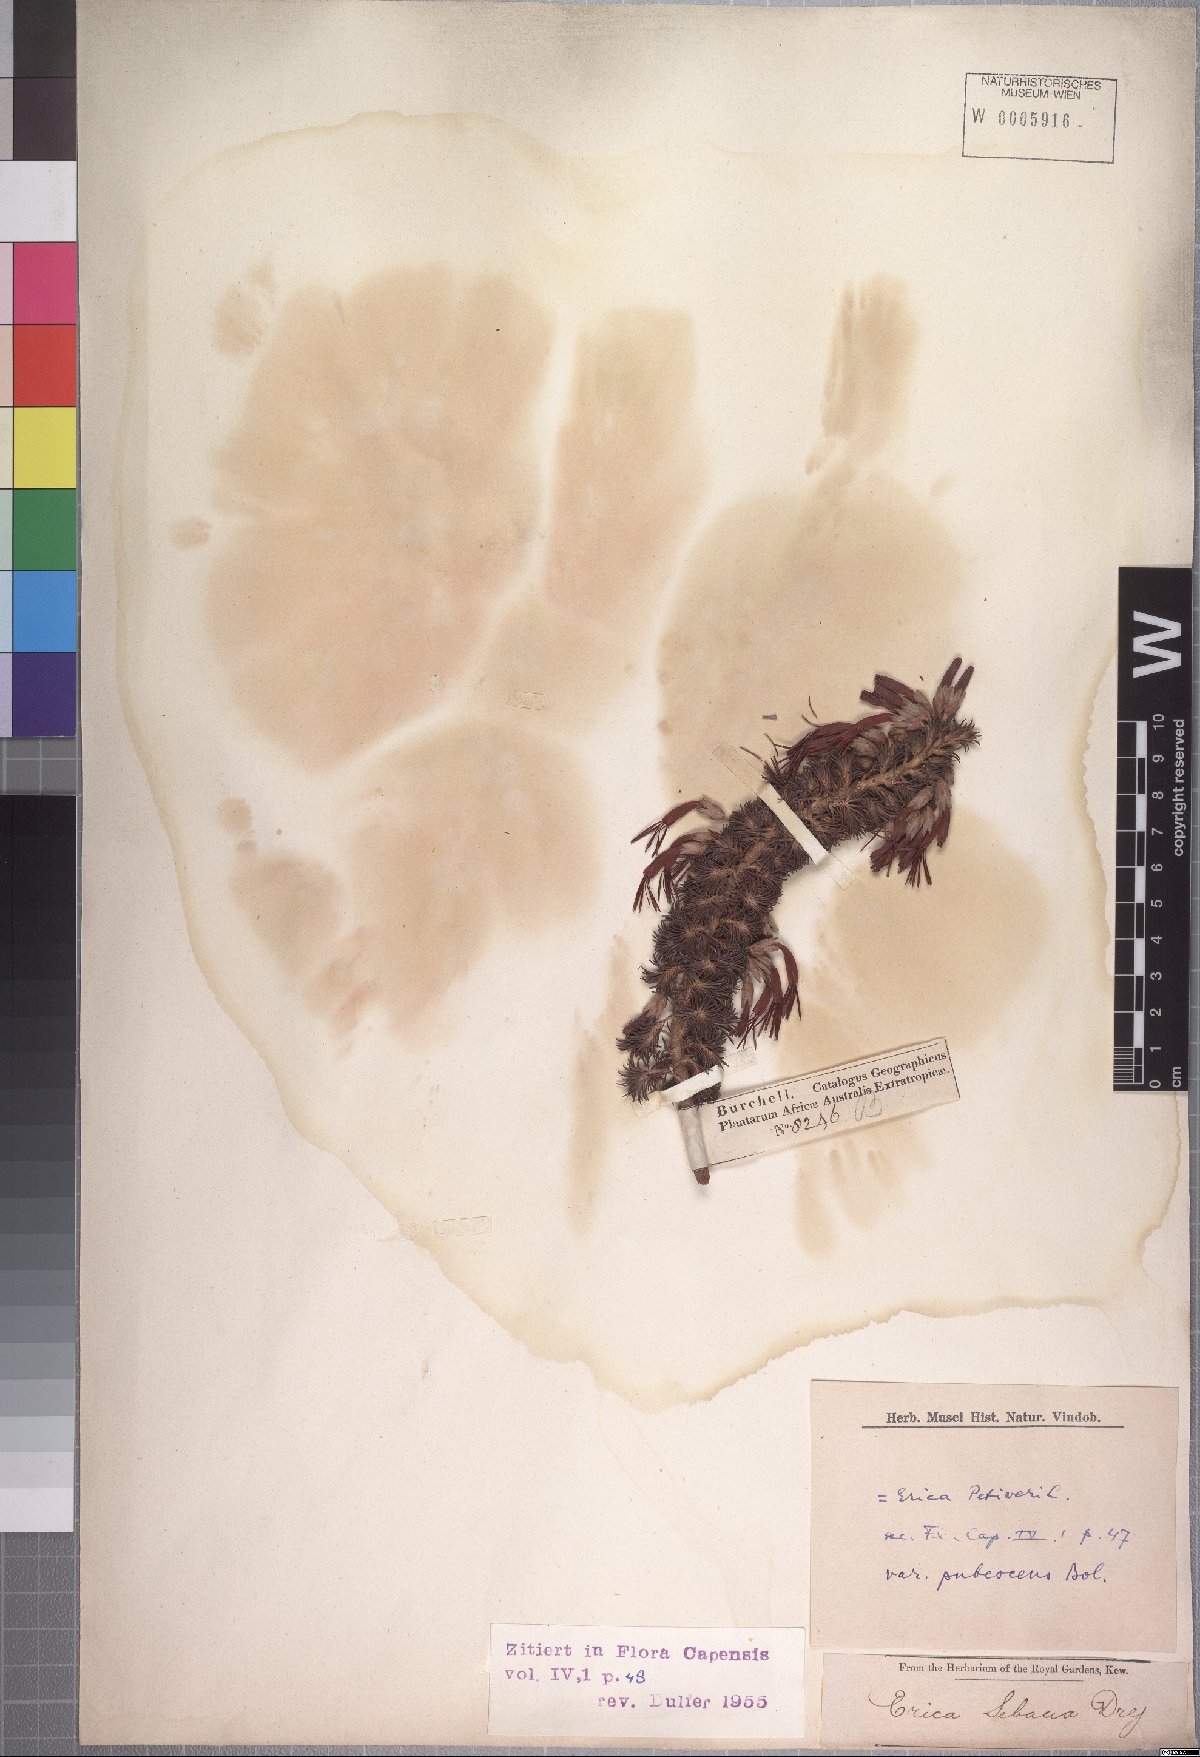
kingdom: Plantae
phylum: Tracheophyta
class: Magnoliopsida
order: Ericales
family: Ericaceae
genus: Erica
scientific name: Erica abietina
